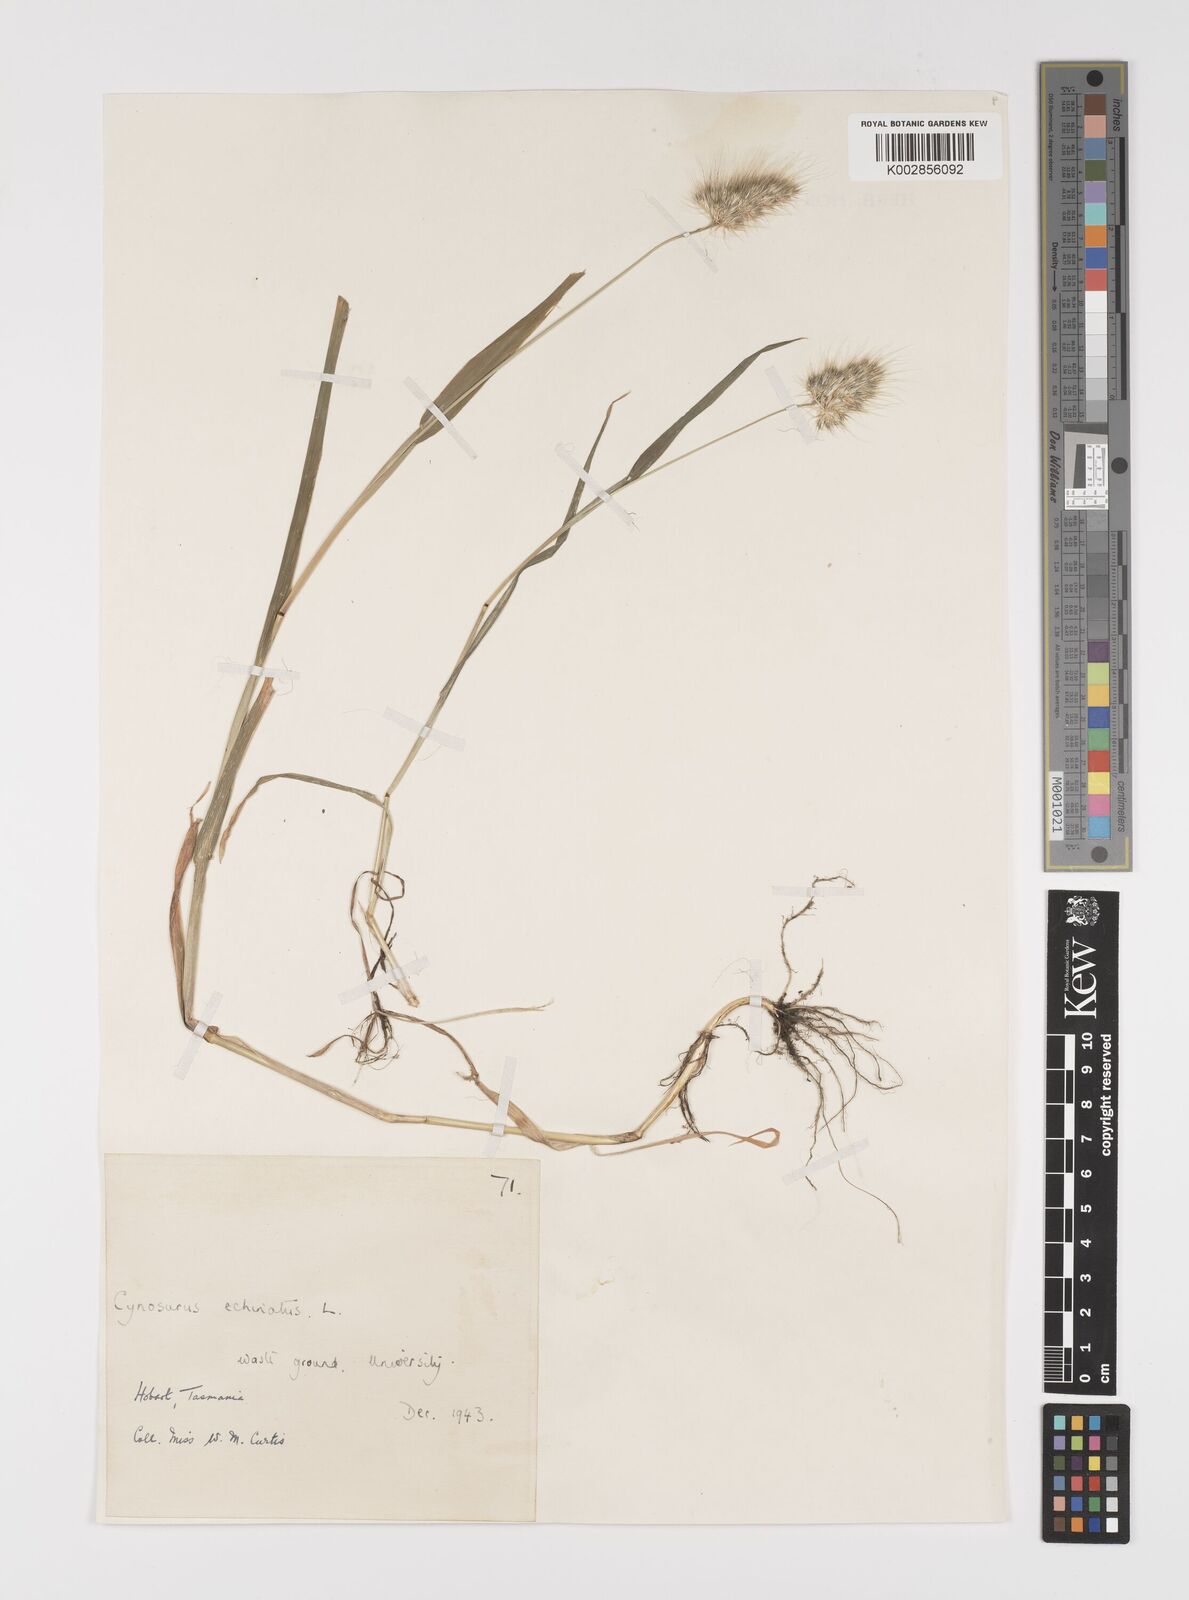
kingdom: Plantae
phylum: Tracheophyta
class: Liliopsida
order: Poales
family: Poaceae
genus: Cynosurus
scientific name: Cynosurus echinatus
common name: Rough dog's-tail
